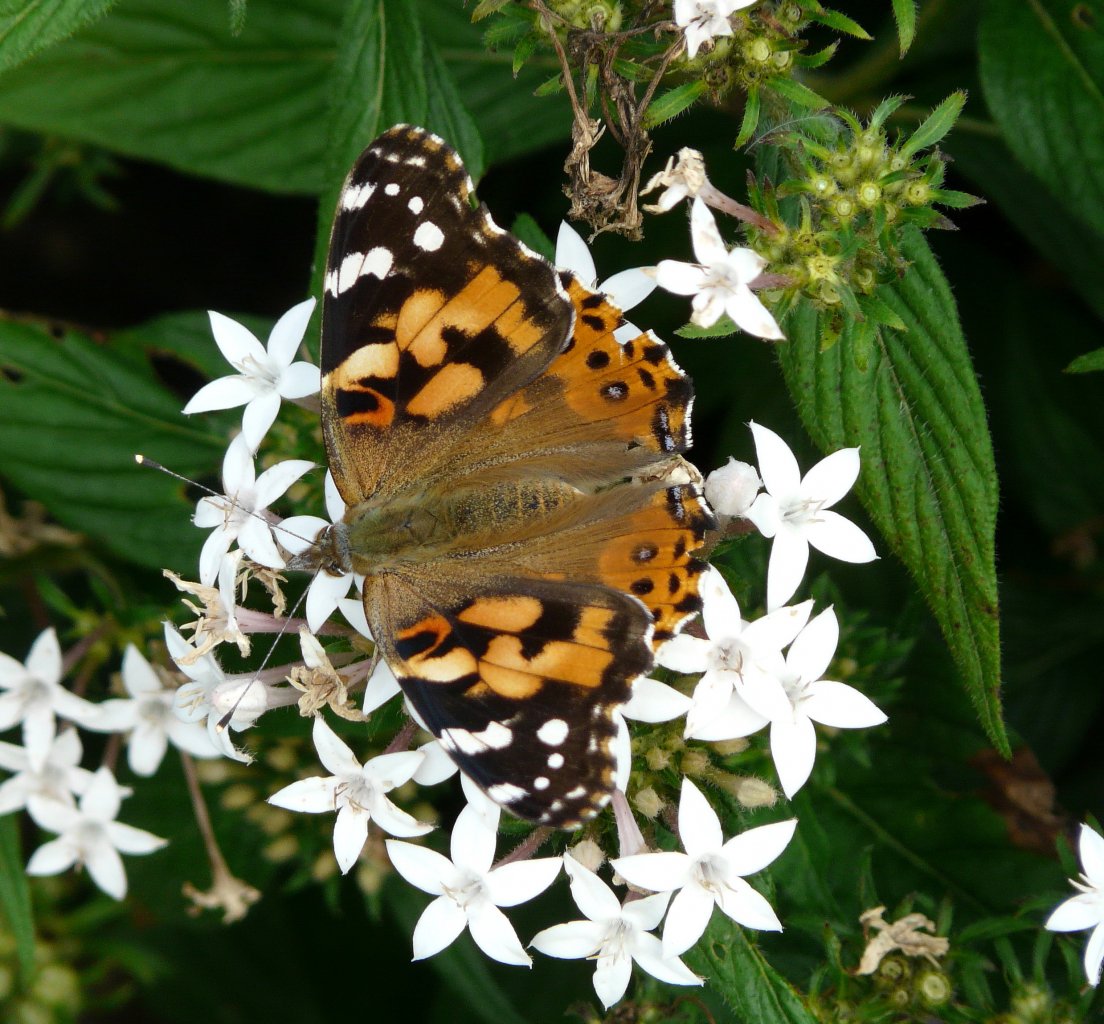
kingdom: Animalia
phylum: Arthropoda
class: Insecta
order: Lepidoptera
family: Nymphalidae
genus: Vanessa
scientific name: Vanessa cardui
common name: Painted Lady
